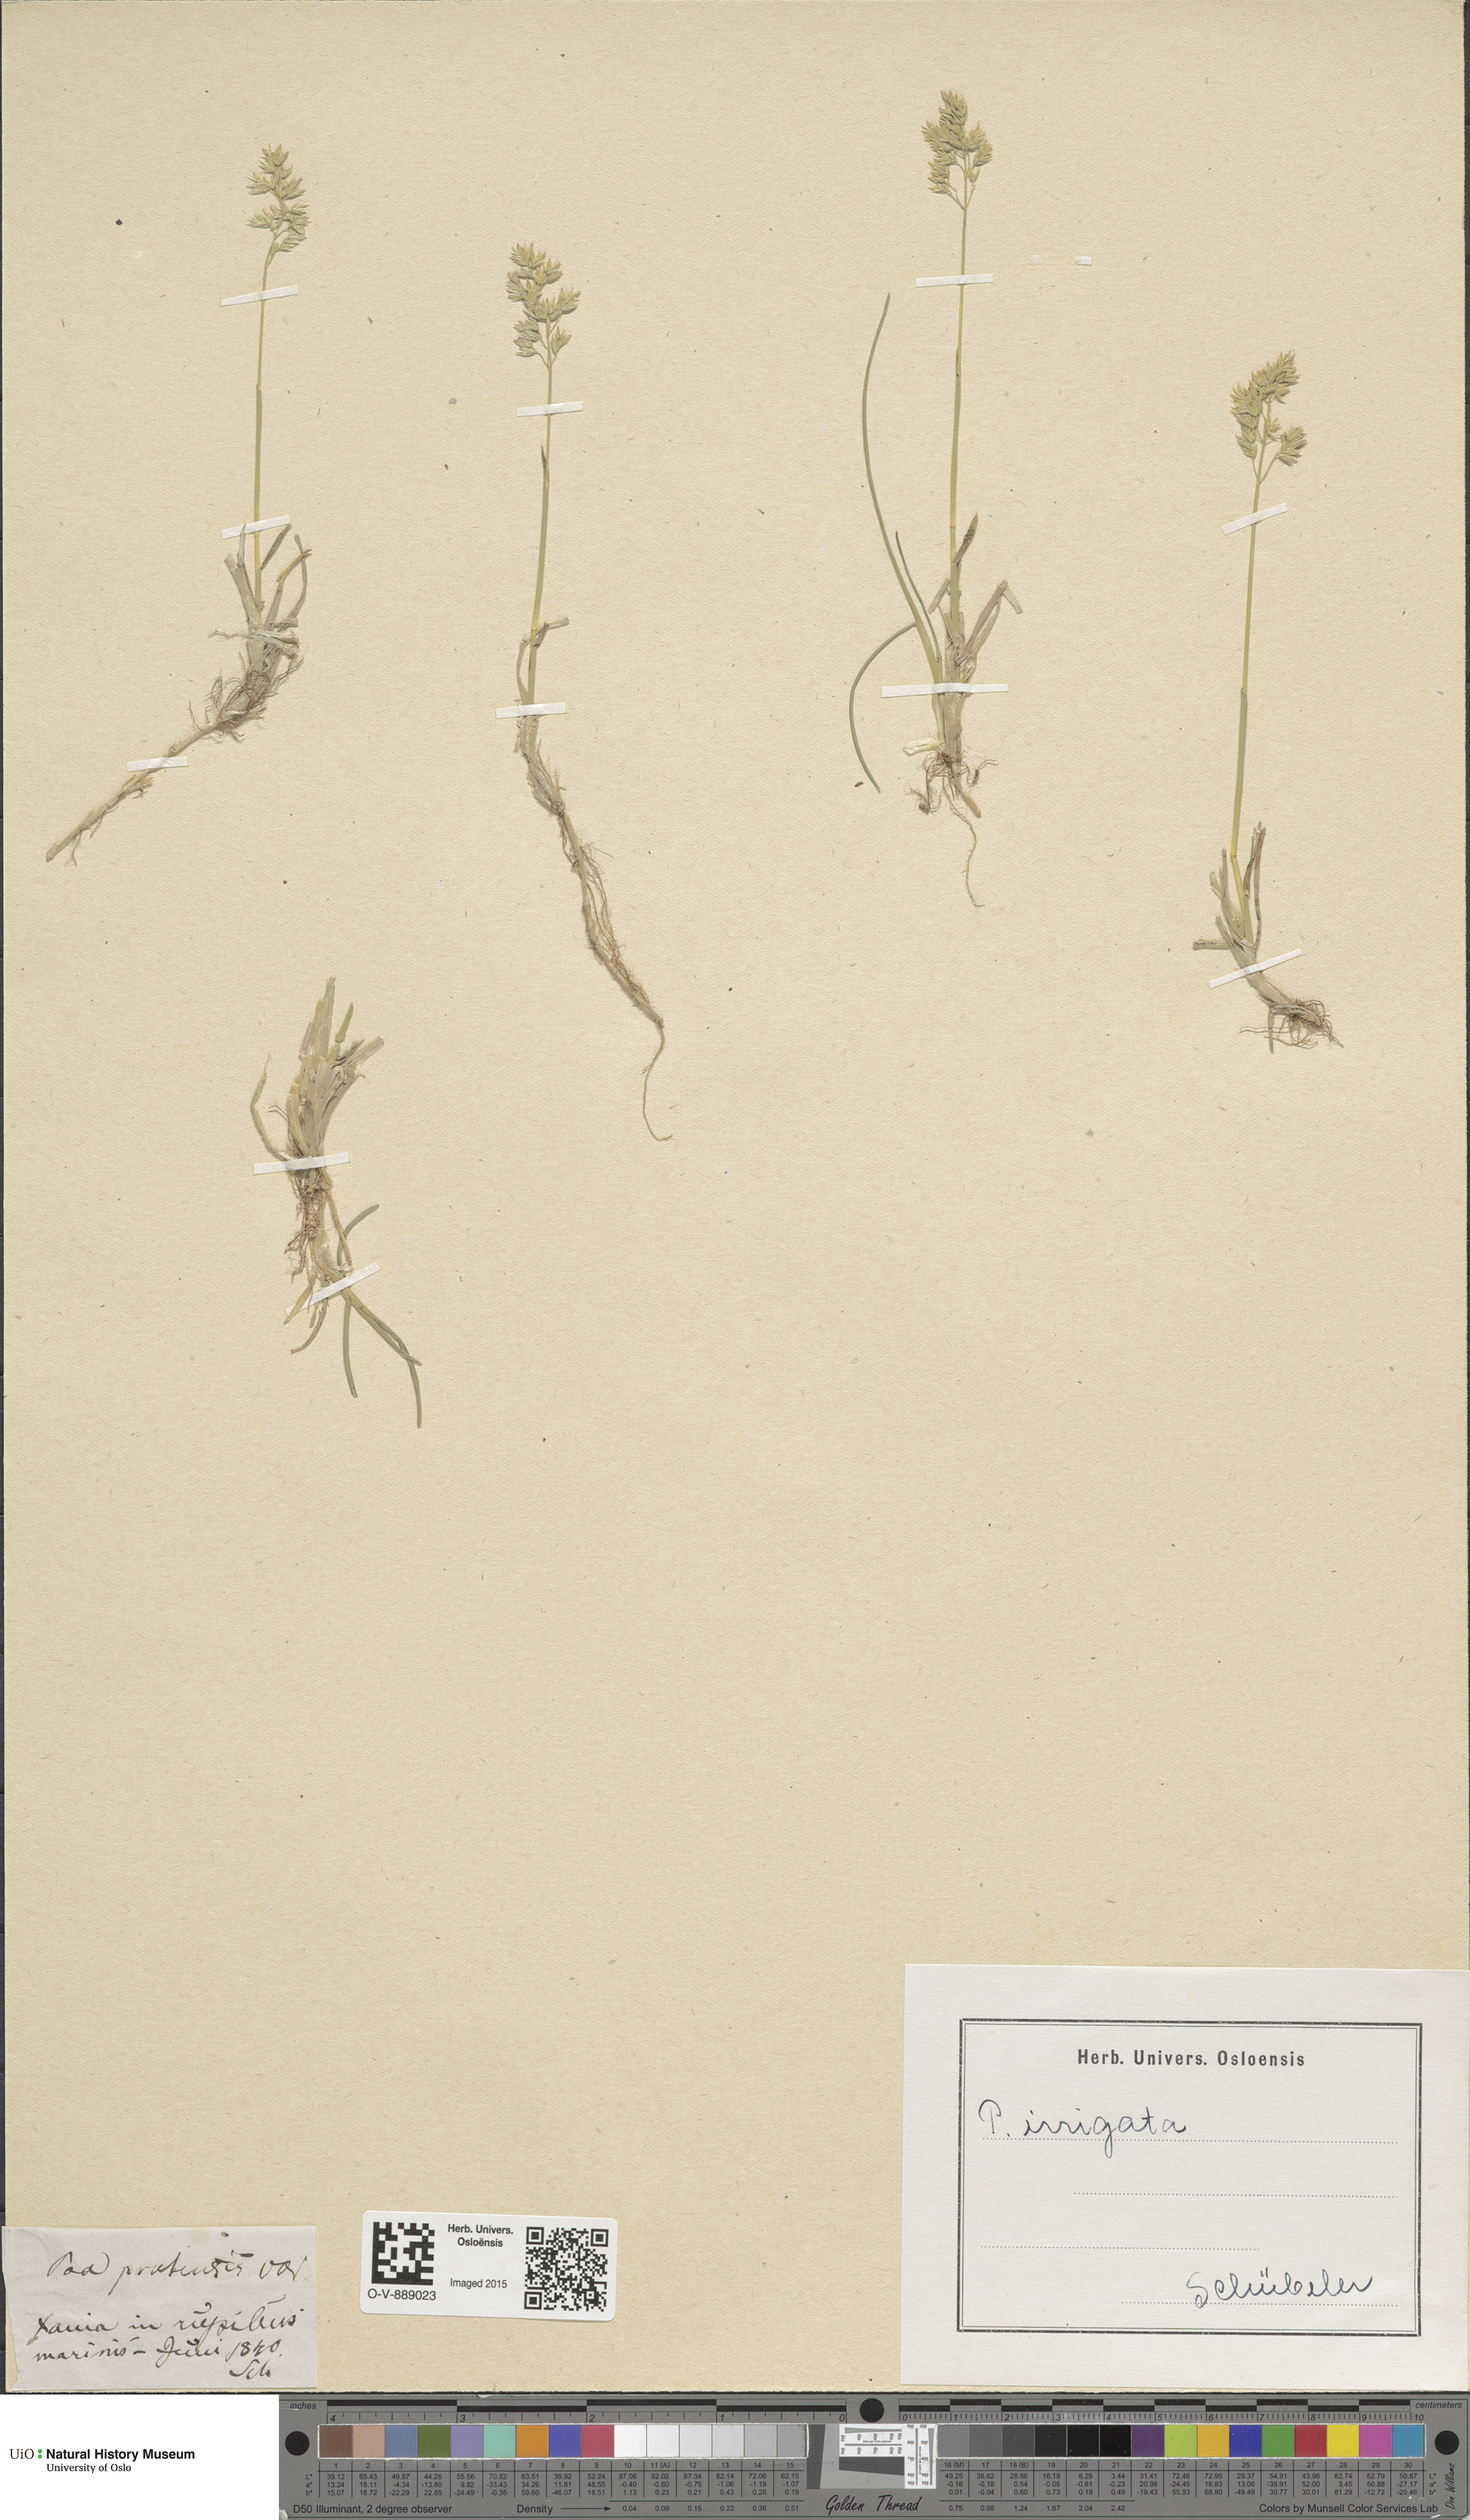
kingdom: Plantae
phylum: Tracheophyta
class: Liliopsida
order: Poales
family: Poaceae
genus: Poa
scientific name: Poa humilis
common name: Spreading meadow-grass
